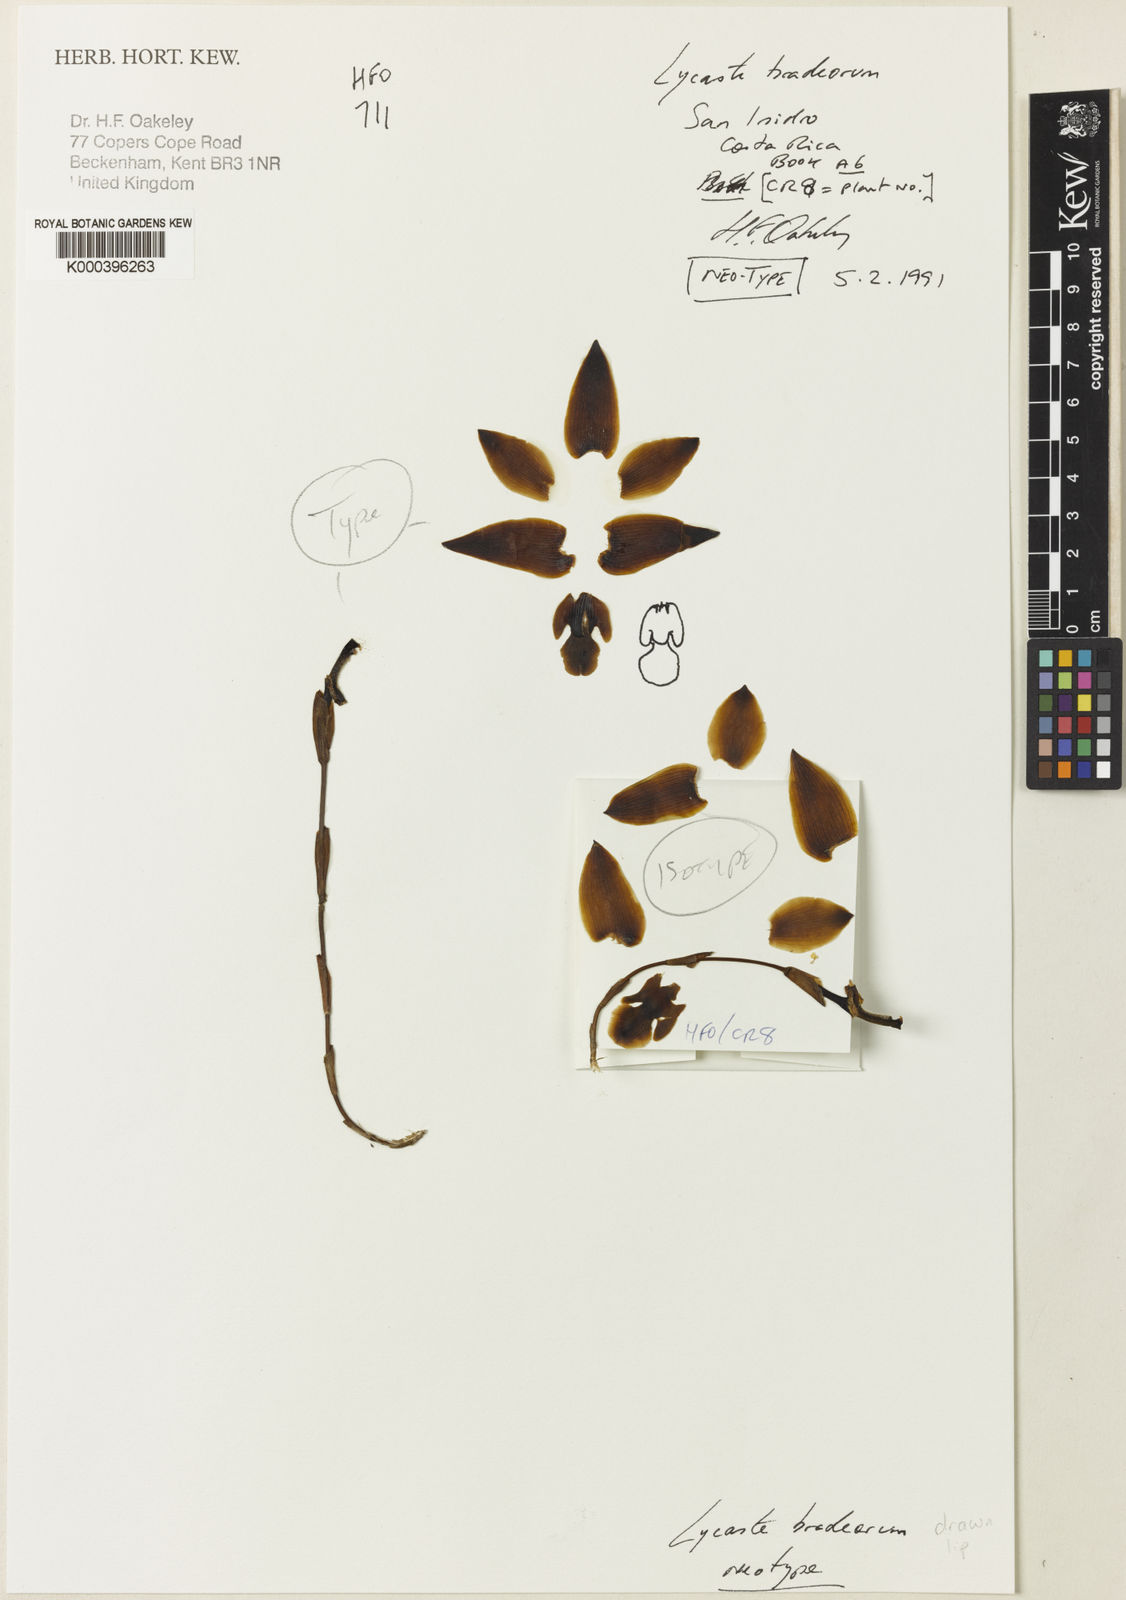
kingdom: Plantae
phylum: Tracheophyta
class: Liliopsida
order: Asparagales
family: Orchidaceae
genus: Lycaste
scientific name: Lycaste bradeorum
